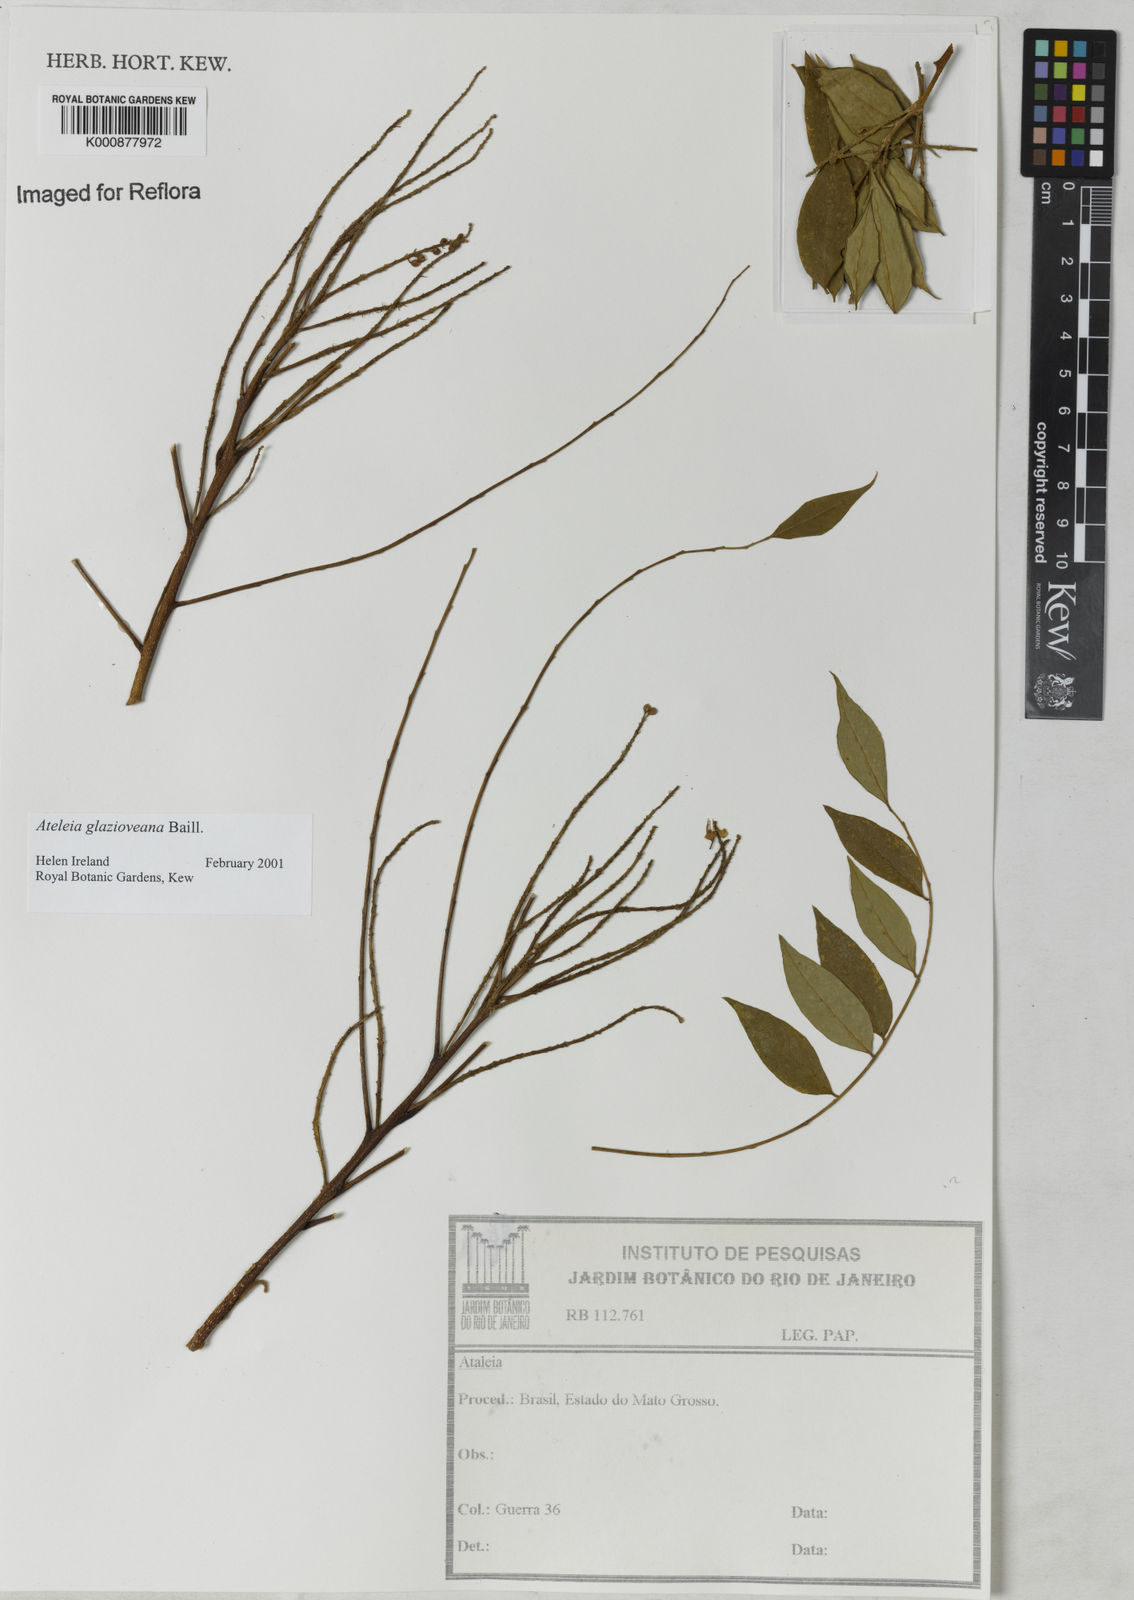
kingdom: Plantae
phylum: Tracheophyta
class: Magnoliopsida
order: Fabales
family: Fabaceae
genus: Ateleia
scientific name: Ateleia glazioveana
